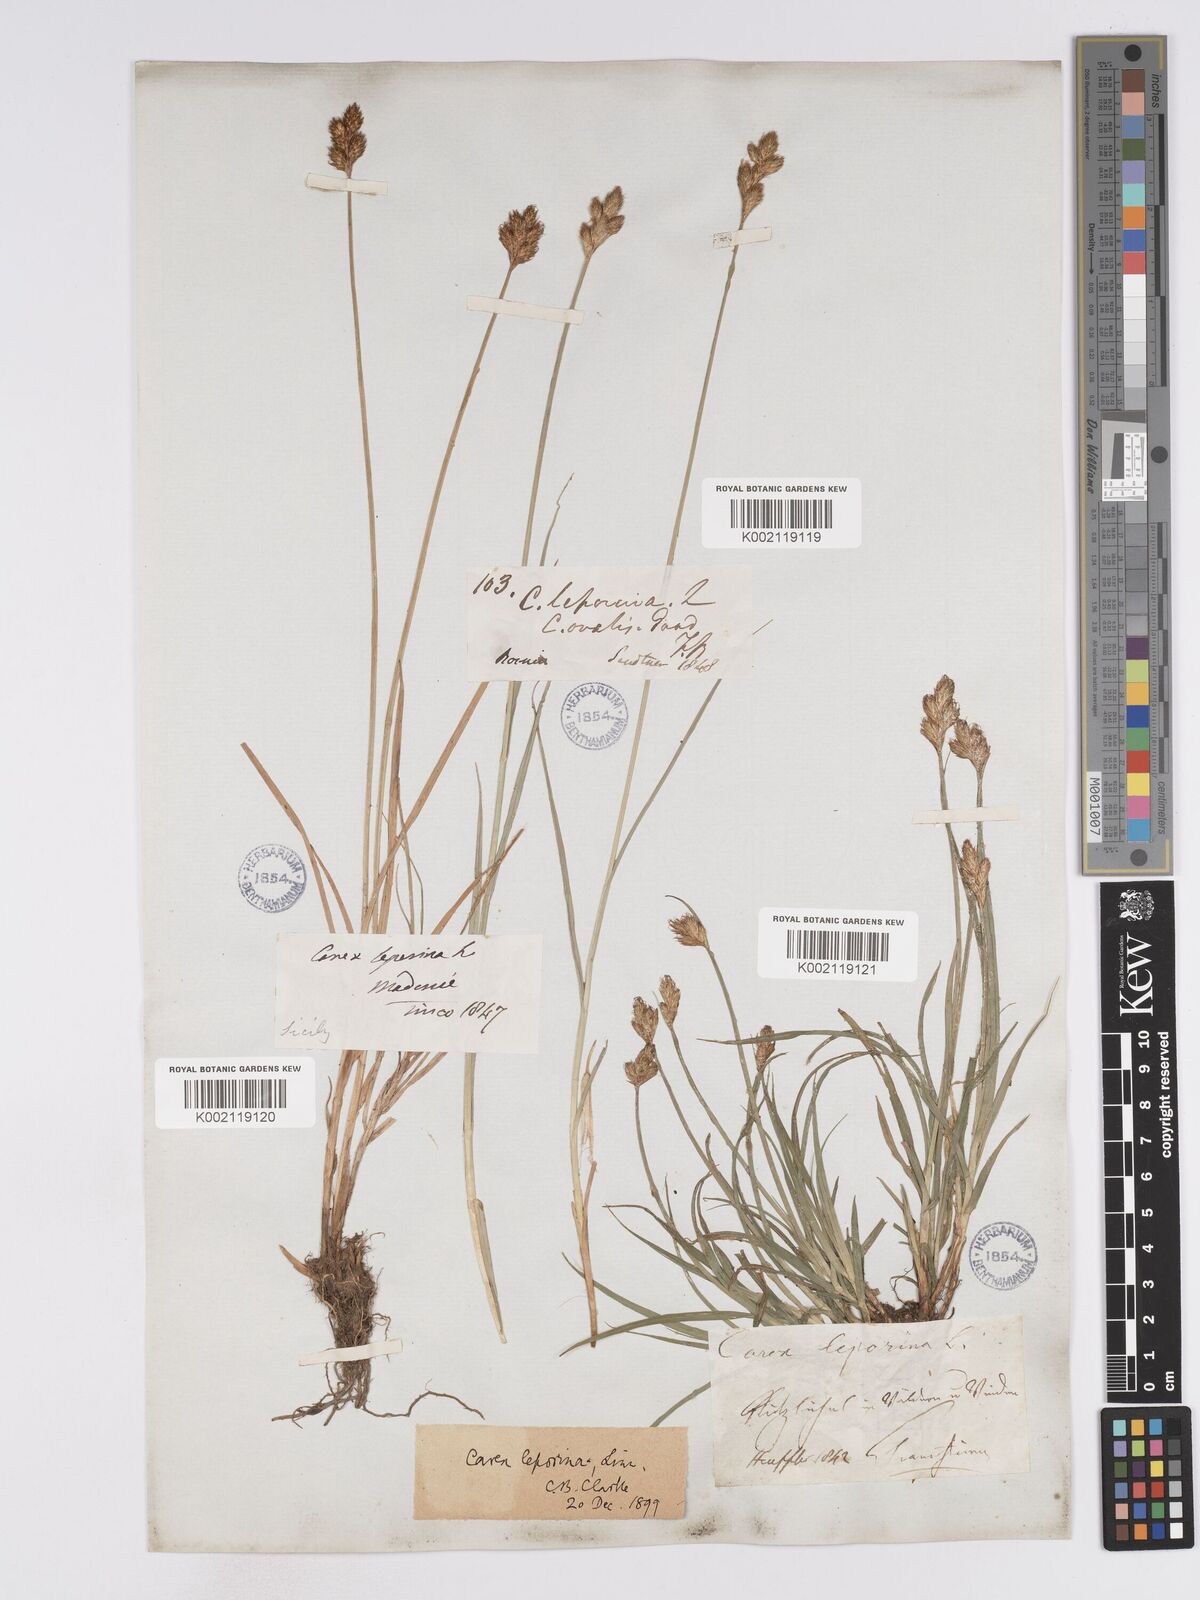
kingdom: Plantae
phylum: Tracheophyta
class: Liliopsida
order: Poales
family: Cyperaceae
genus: Carex
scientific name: Carex leporina
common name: Oval sedge
